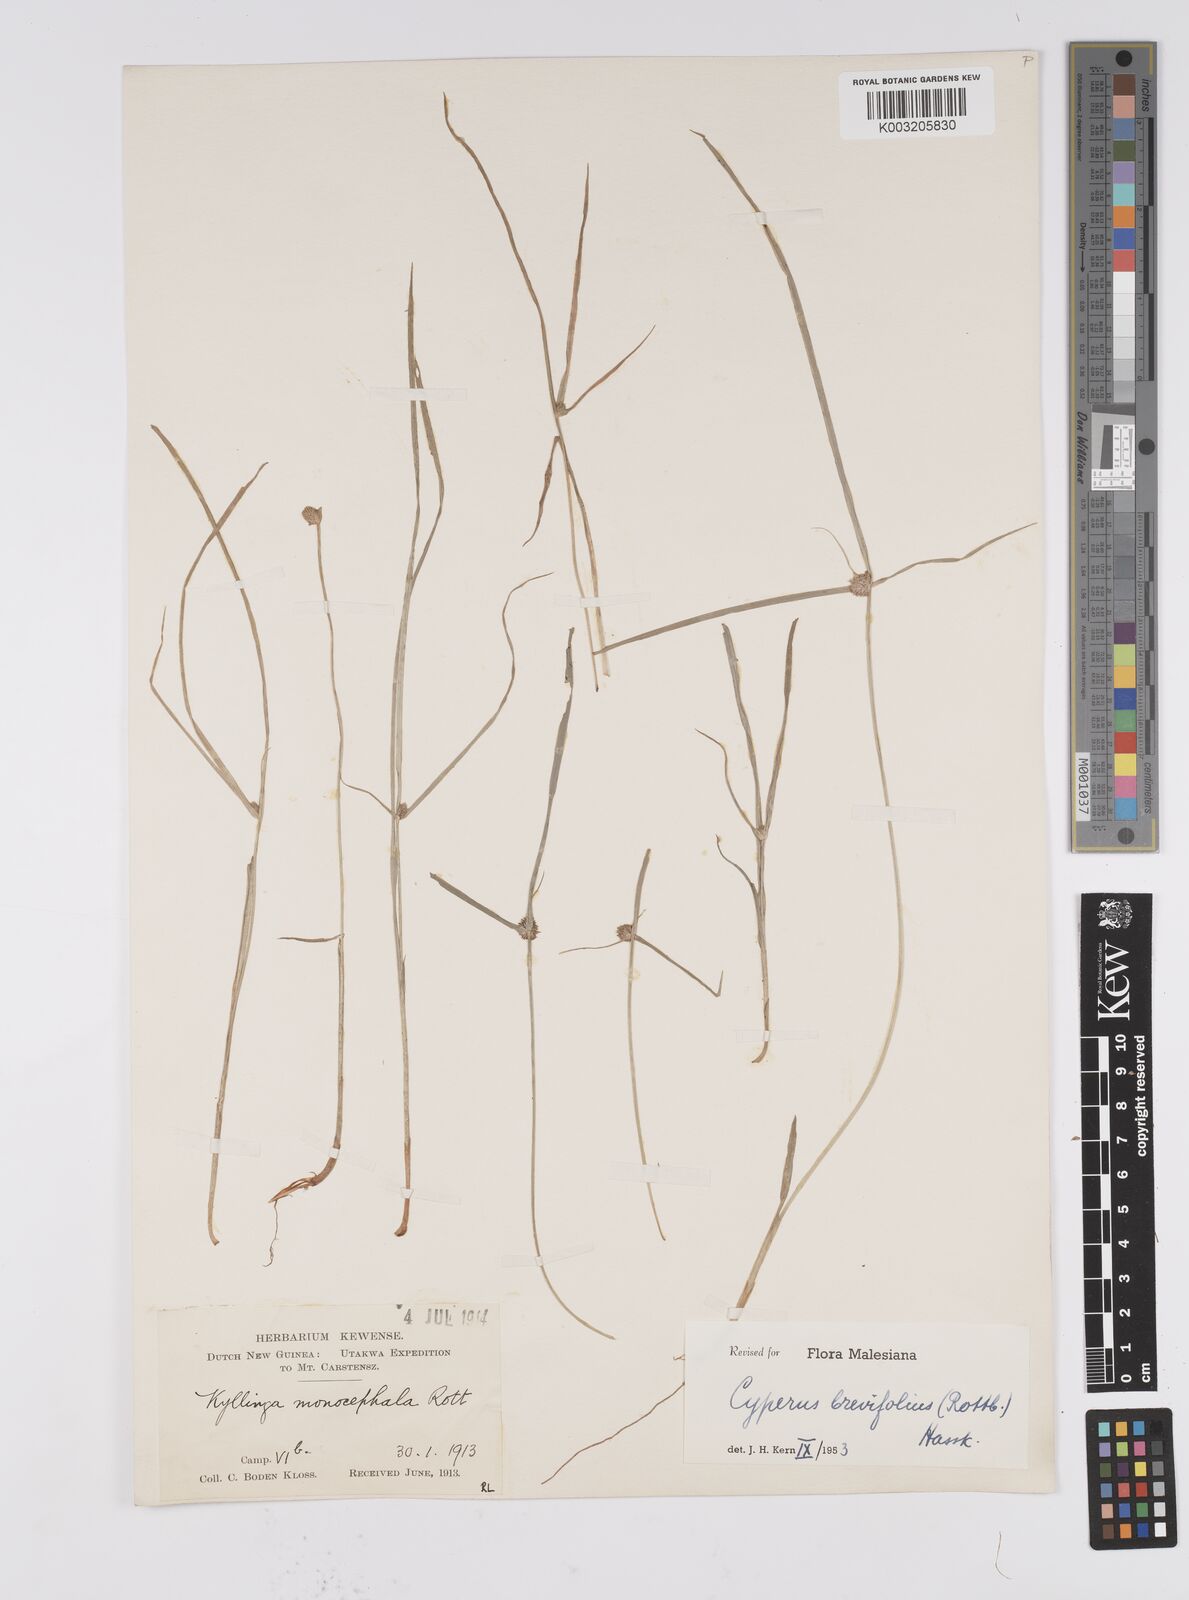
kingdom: Plantae
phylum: Tracheophyta
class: Liliopsida
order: Poales
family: Cyperaceae
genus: Cyperus
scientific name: Cyperus brevifolius
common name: Globe kyllinga
